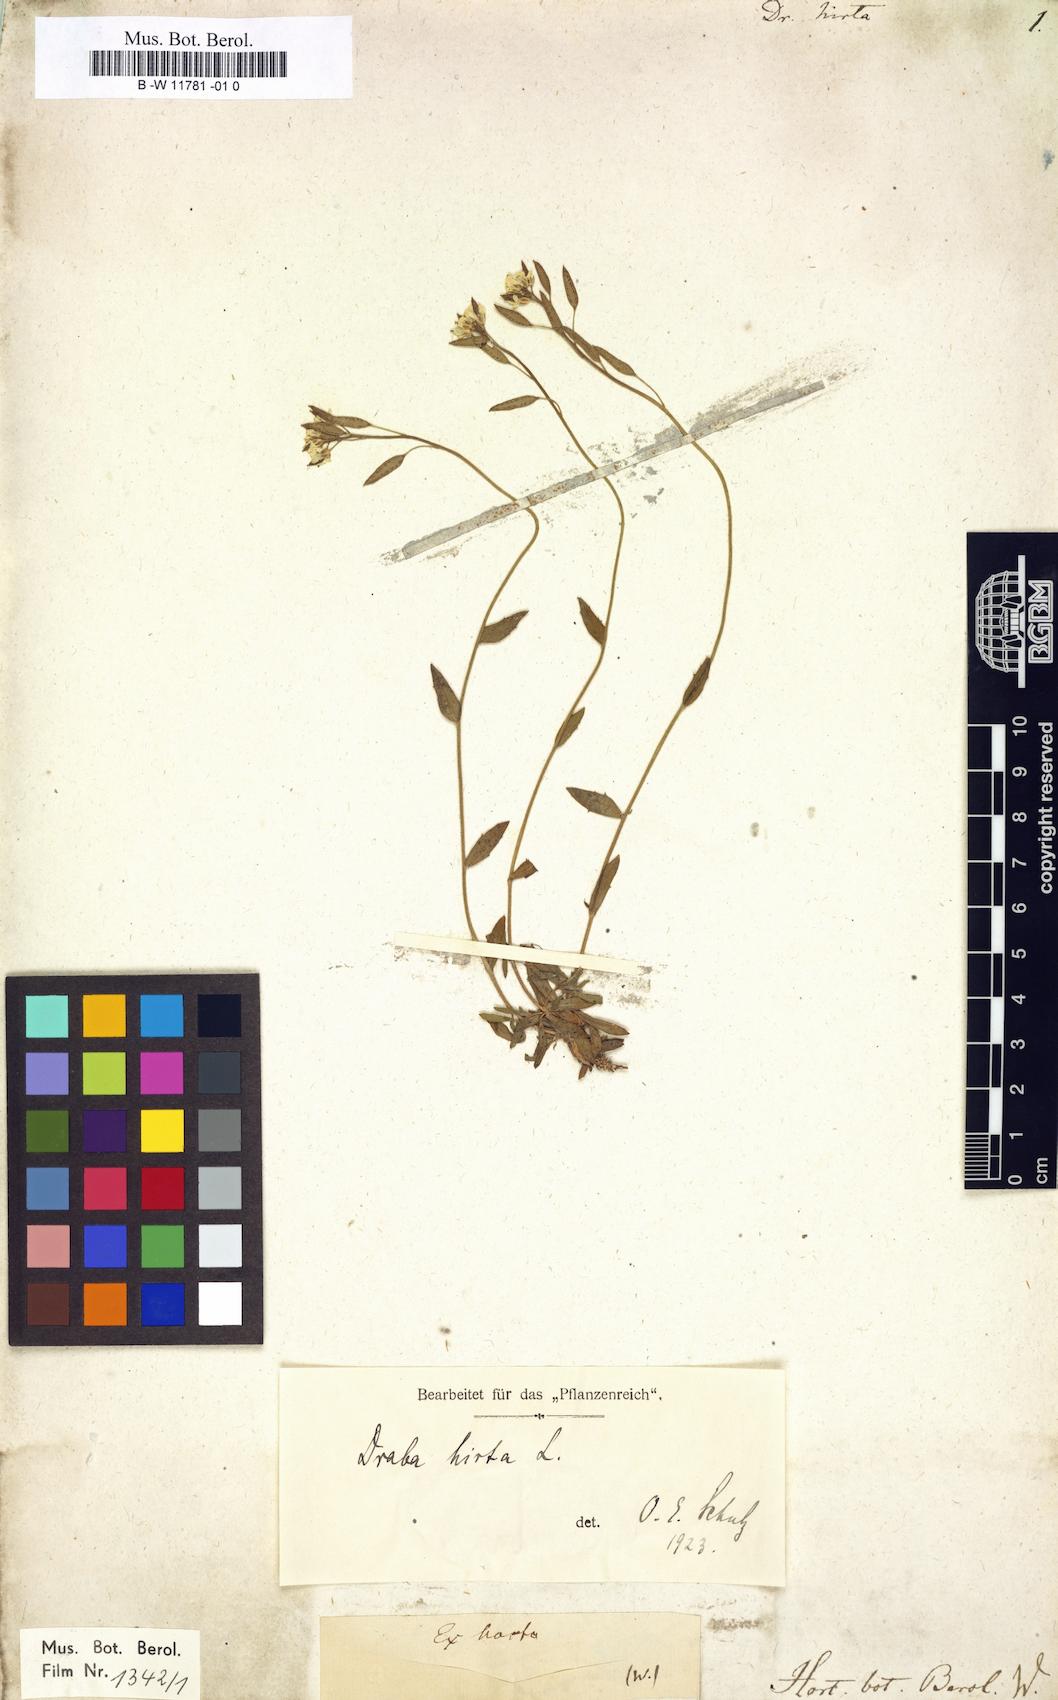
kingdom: Plantae
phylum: Tracheophyta
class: Magnoliopsida
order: Brassicales
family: Brassicaceae
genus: Draba
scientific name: Draba hirta
